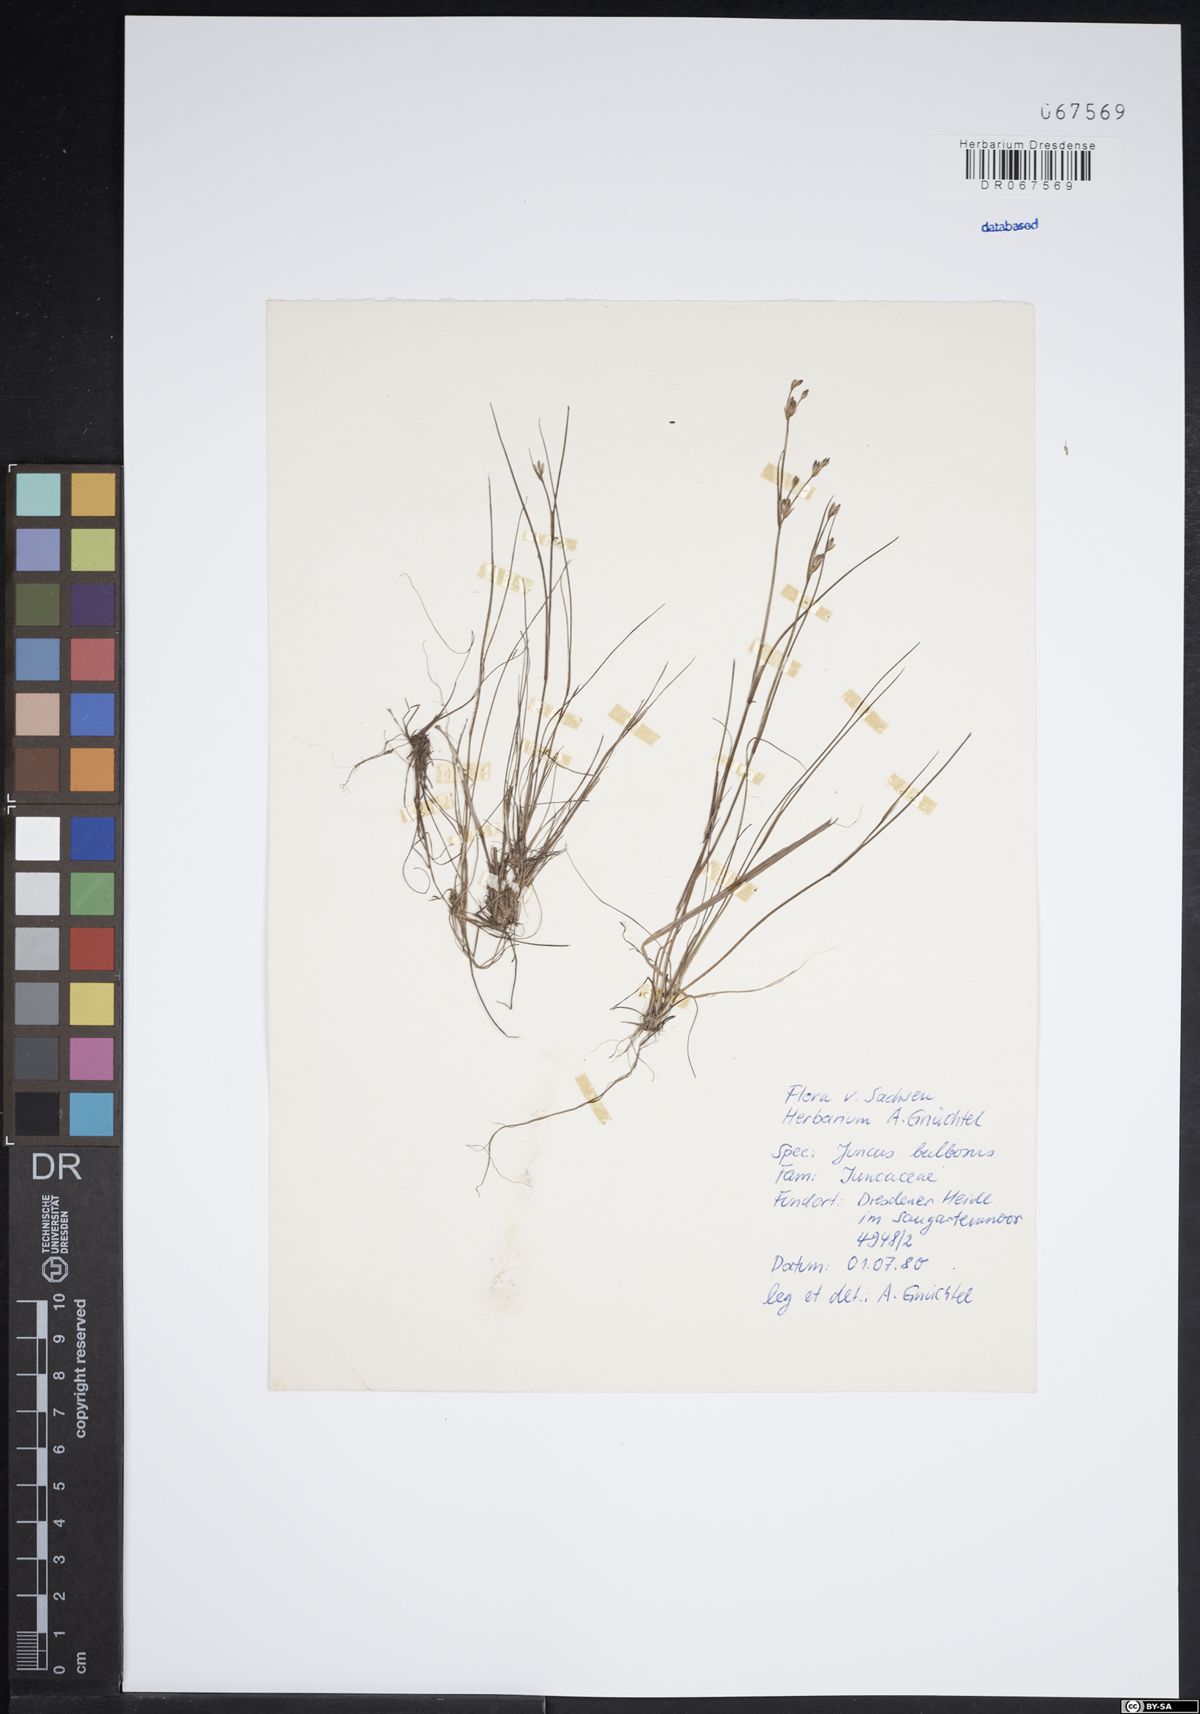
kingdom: Plantae
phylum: Tracheophyta
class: Liliopsida
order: Poales
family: Juncaceae
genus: Juncus
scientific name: Juncus bulbosus
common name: Bulbous rush
